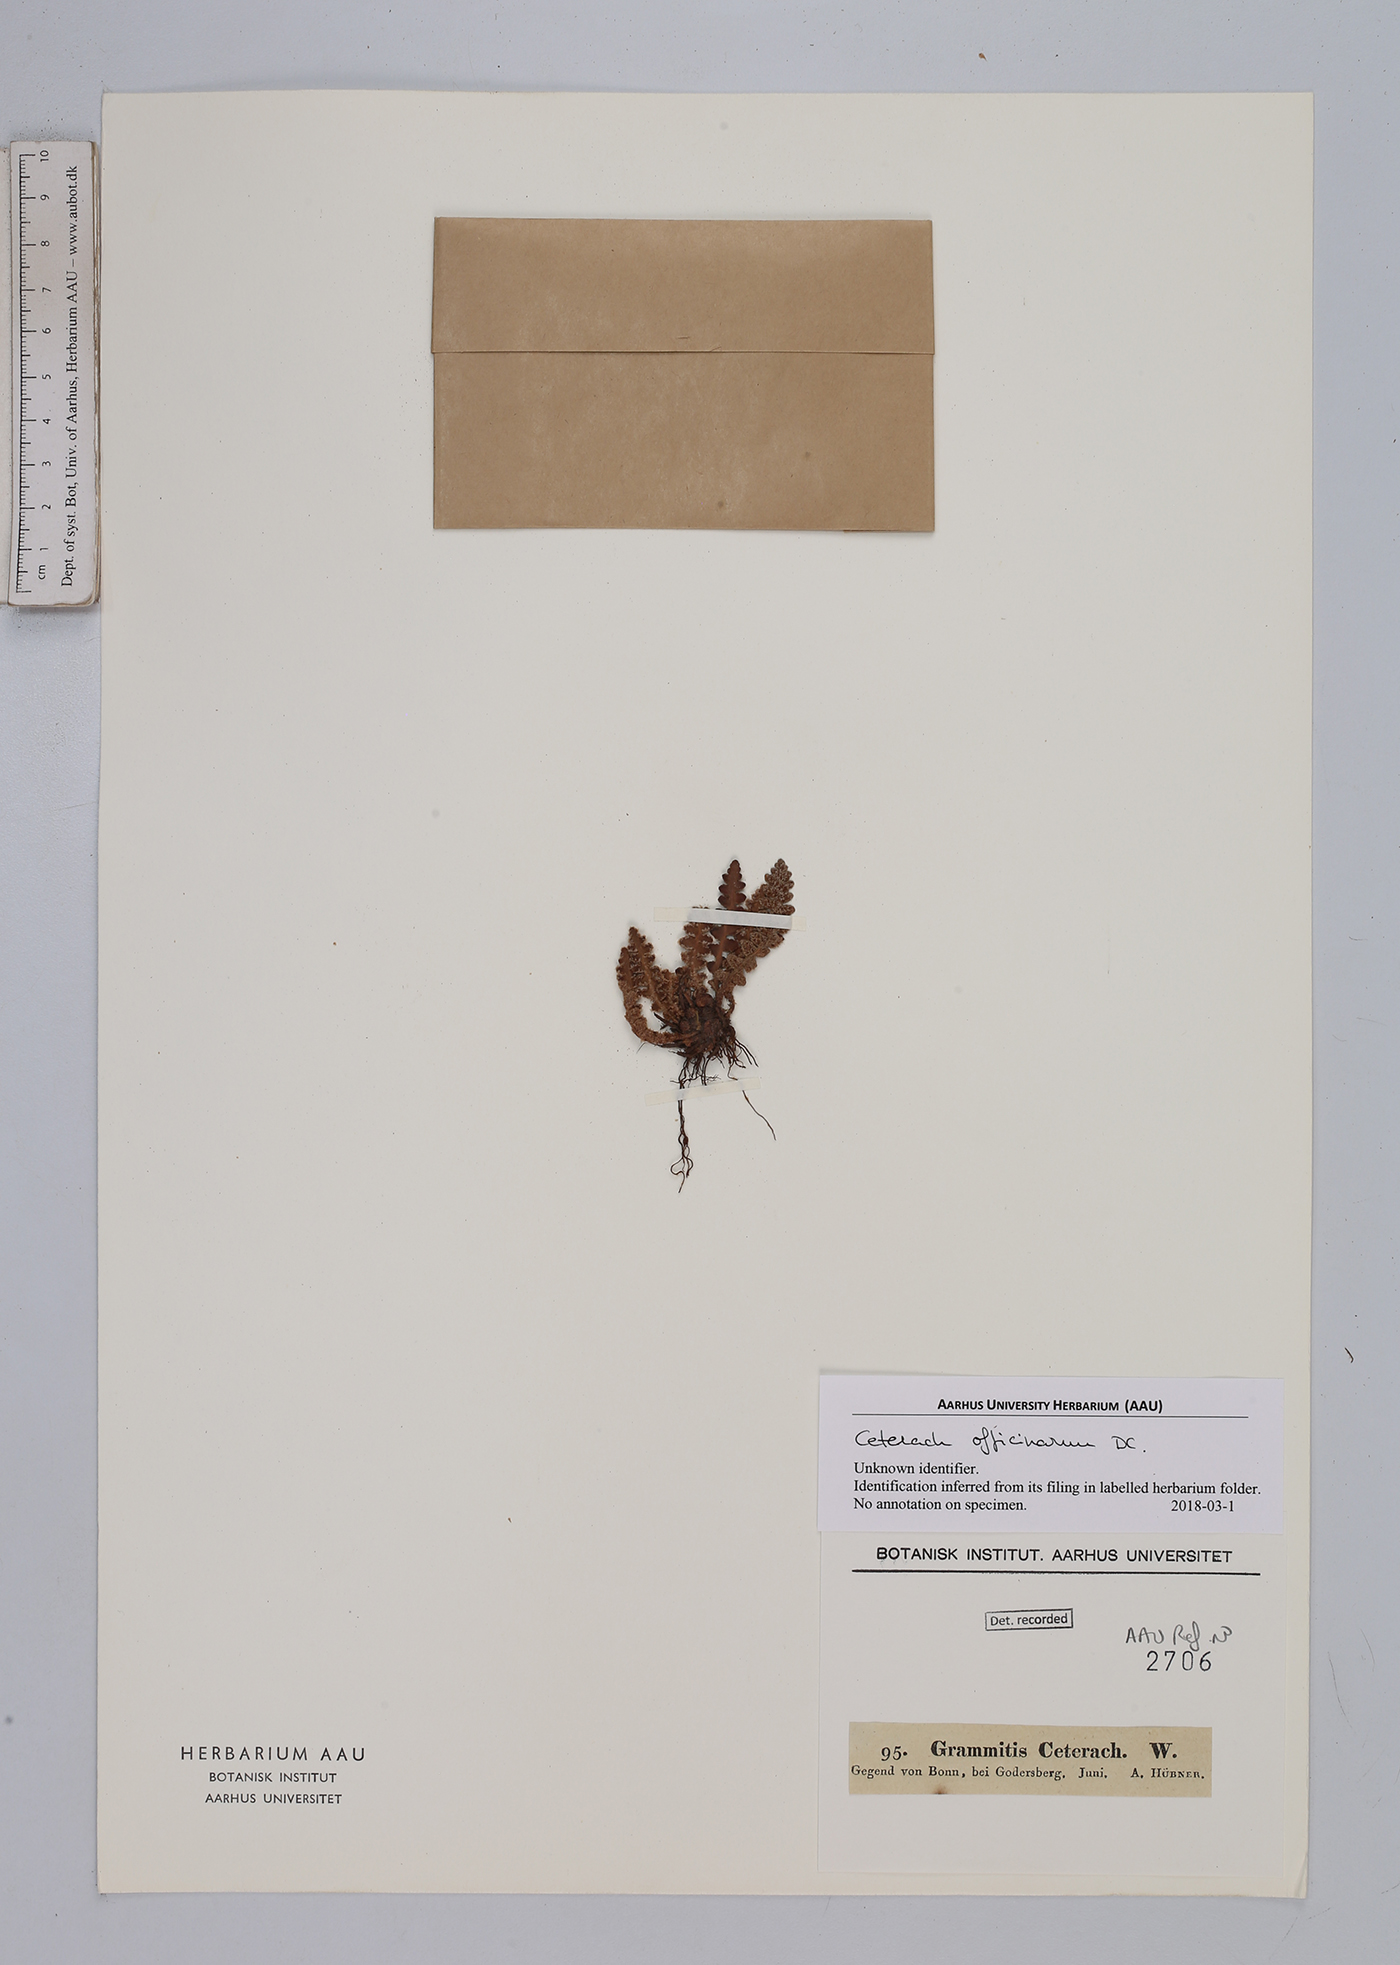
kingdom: Plantae
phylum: Tracheophyta
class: Polypodiopsida
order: Polypodiales
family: Aspleniaceae
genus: Asplenium
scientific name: Asplenium ceterach
